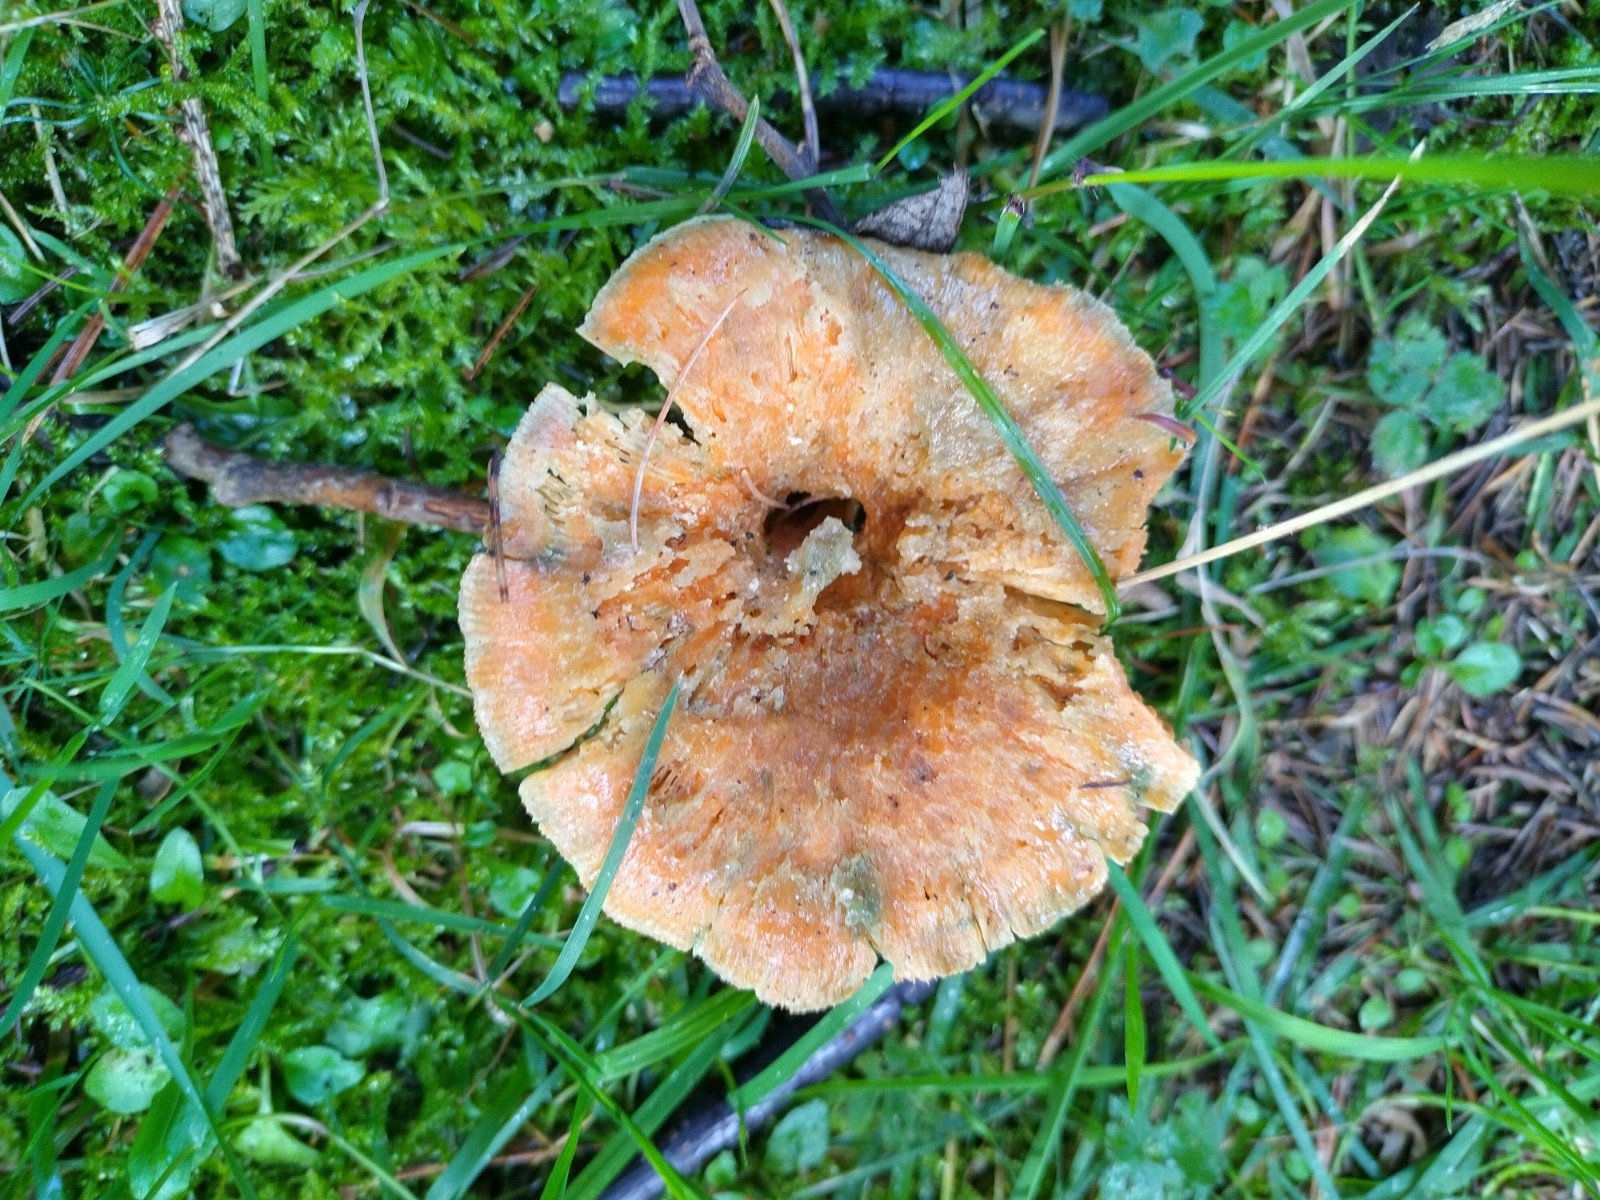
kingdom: Fungi
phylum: Basidiomycota
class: Agaricomycetes
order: Russulales
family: Russulaceae
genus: Lactarius
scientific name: Lactarius deterrimus
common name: gran-mælkehat
